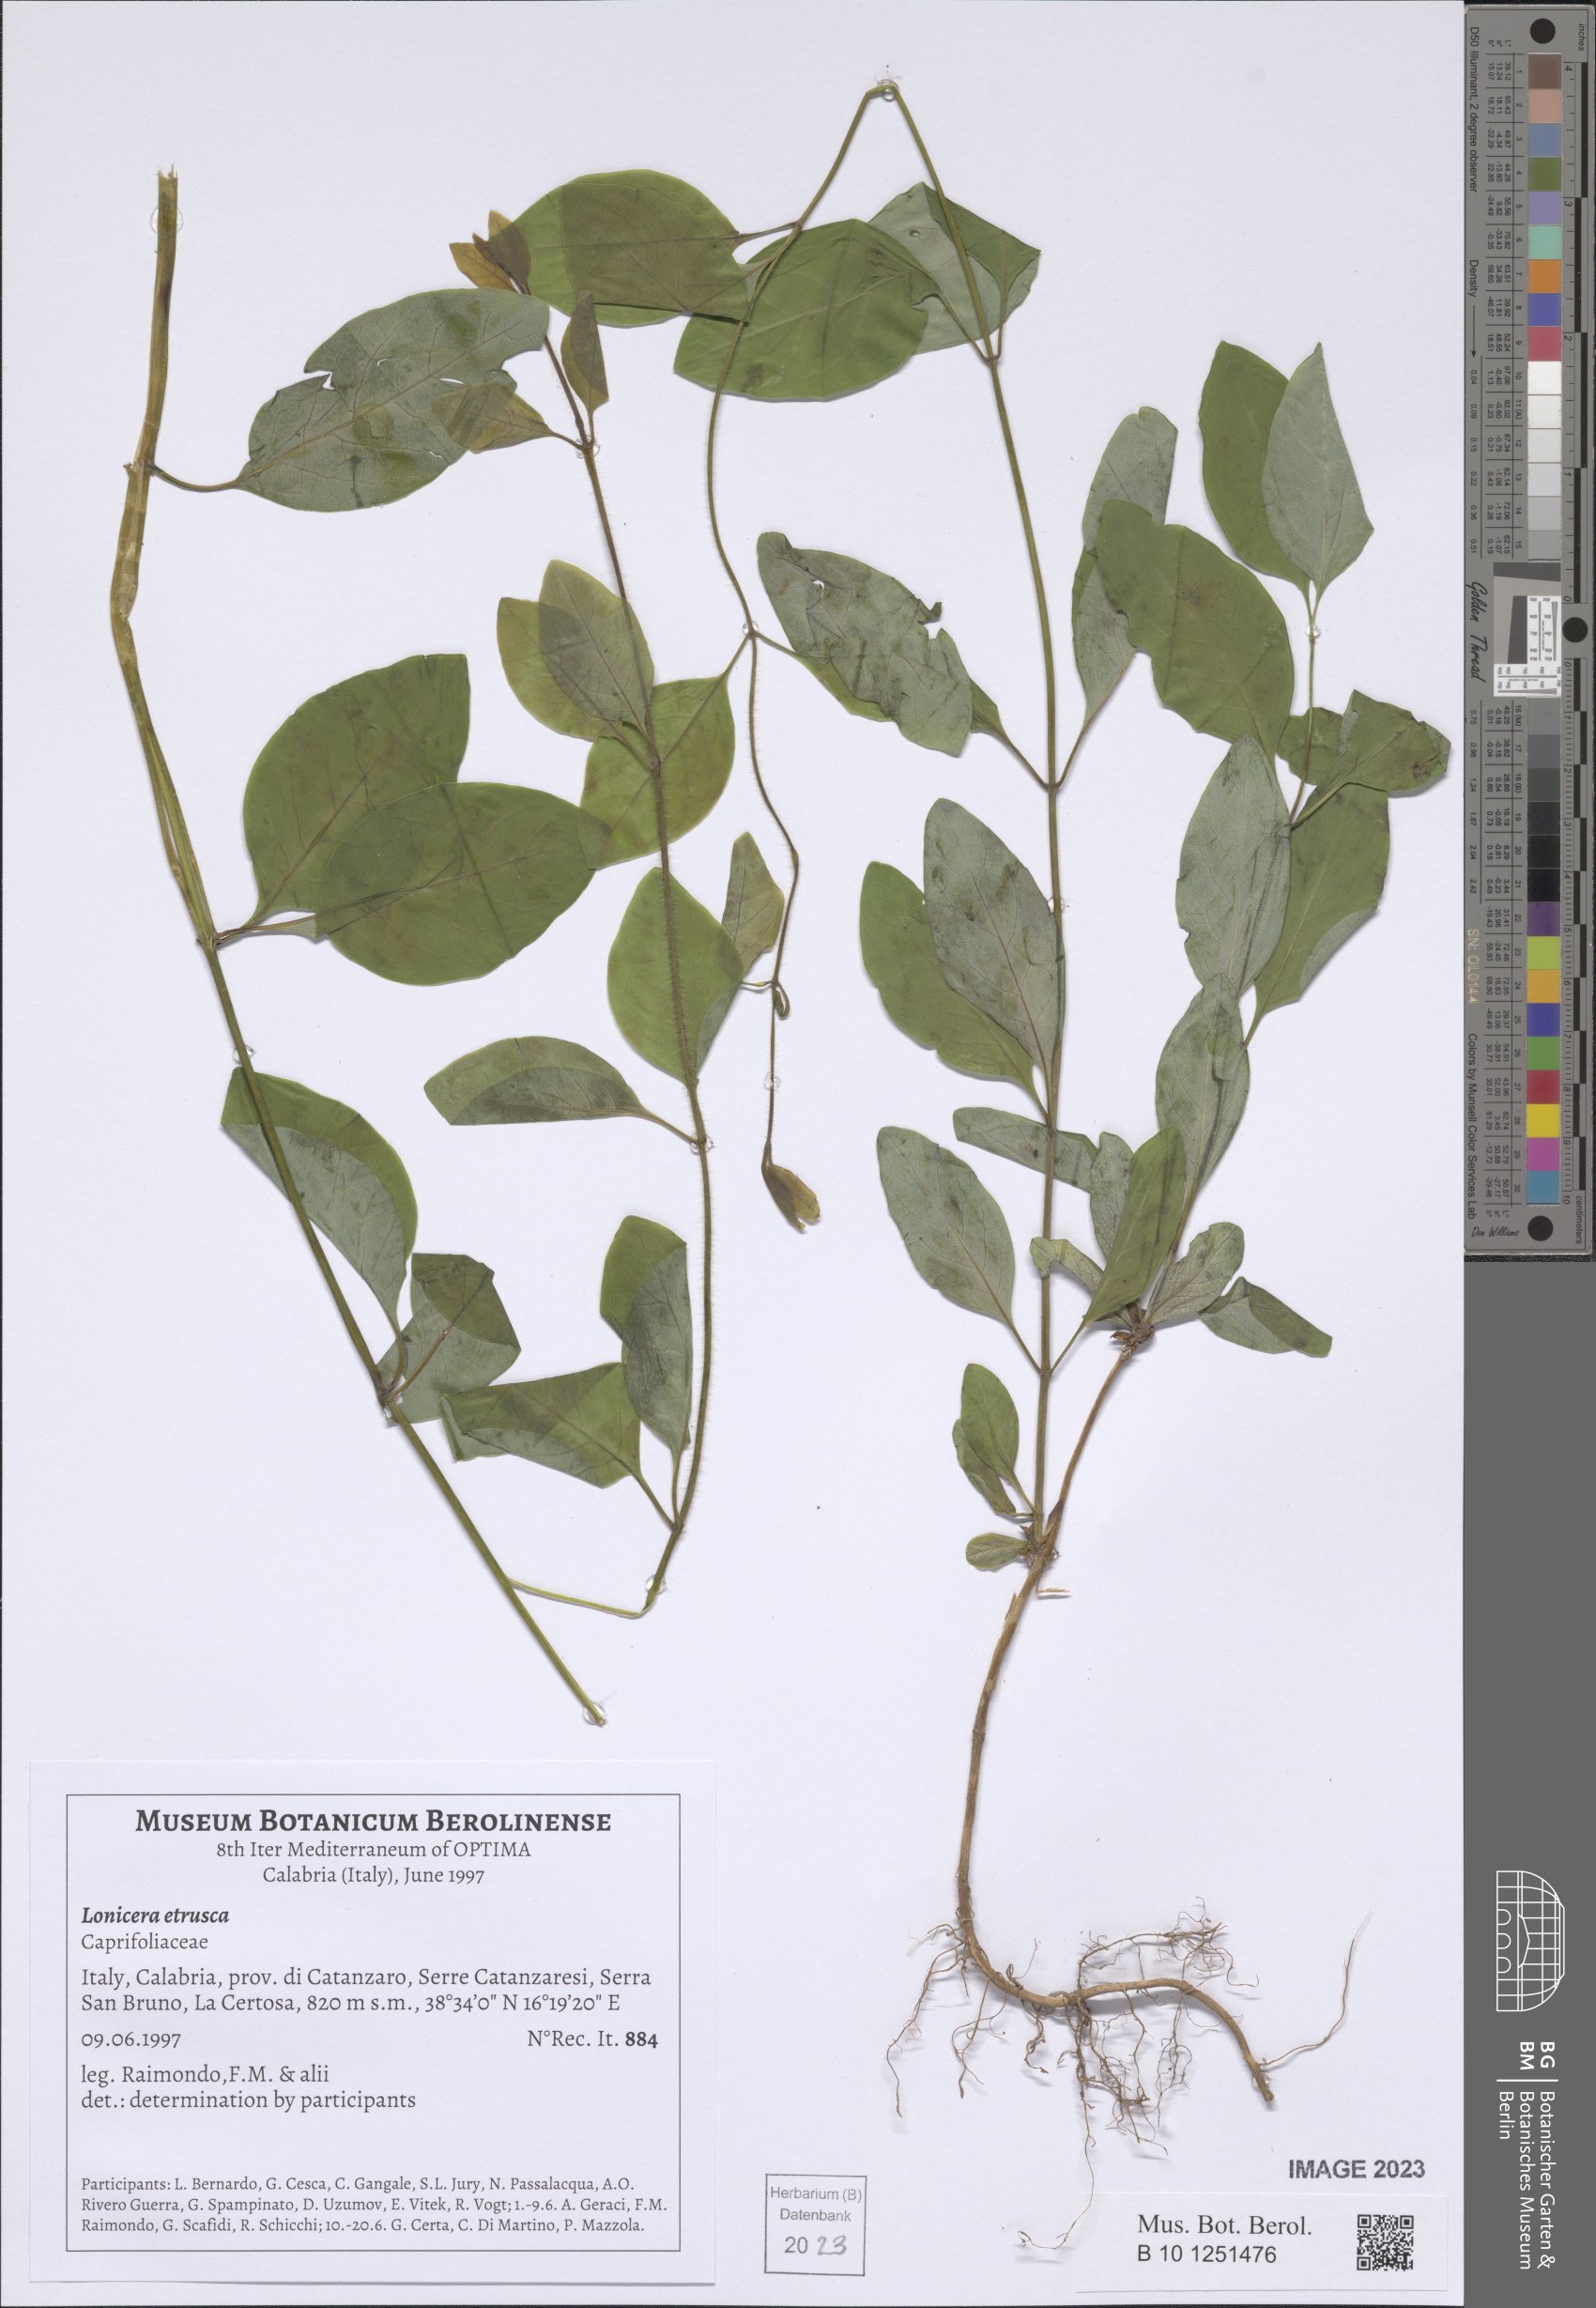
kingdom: Plantae
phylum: Tracheophyta
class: Magnoliopsida
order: Dipsacales
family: Caprifoliaceae
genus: Lonicera
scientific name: Lonicera etrusca
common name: Etruscan honeysuckle
